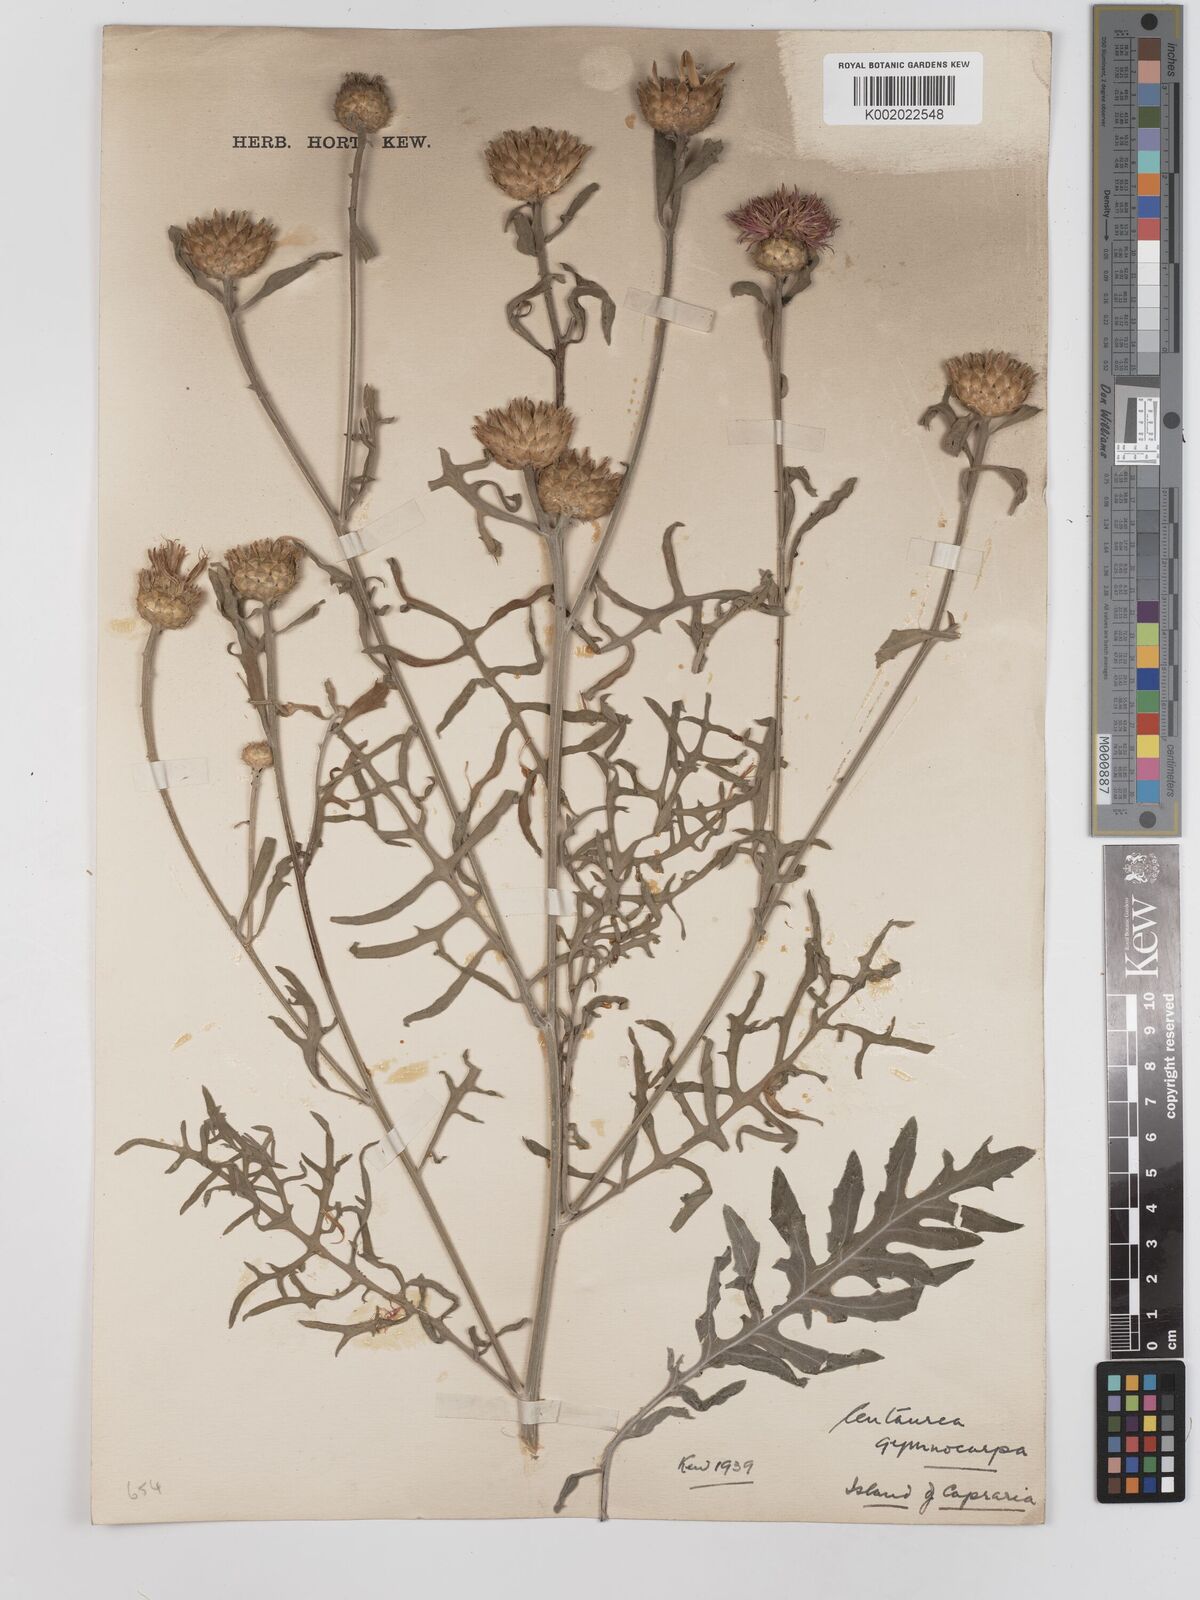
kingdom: Plantae
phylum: Tracheophyta
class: Magnoliopsida
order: Asterales
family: Asteraceae
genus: Centaurea
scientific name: Centaurea cineraria
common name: Dusty miller
